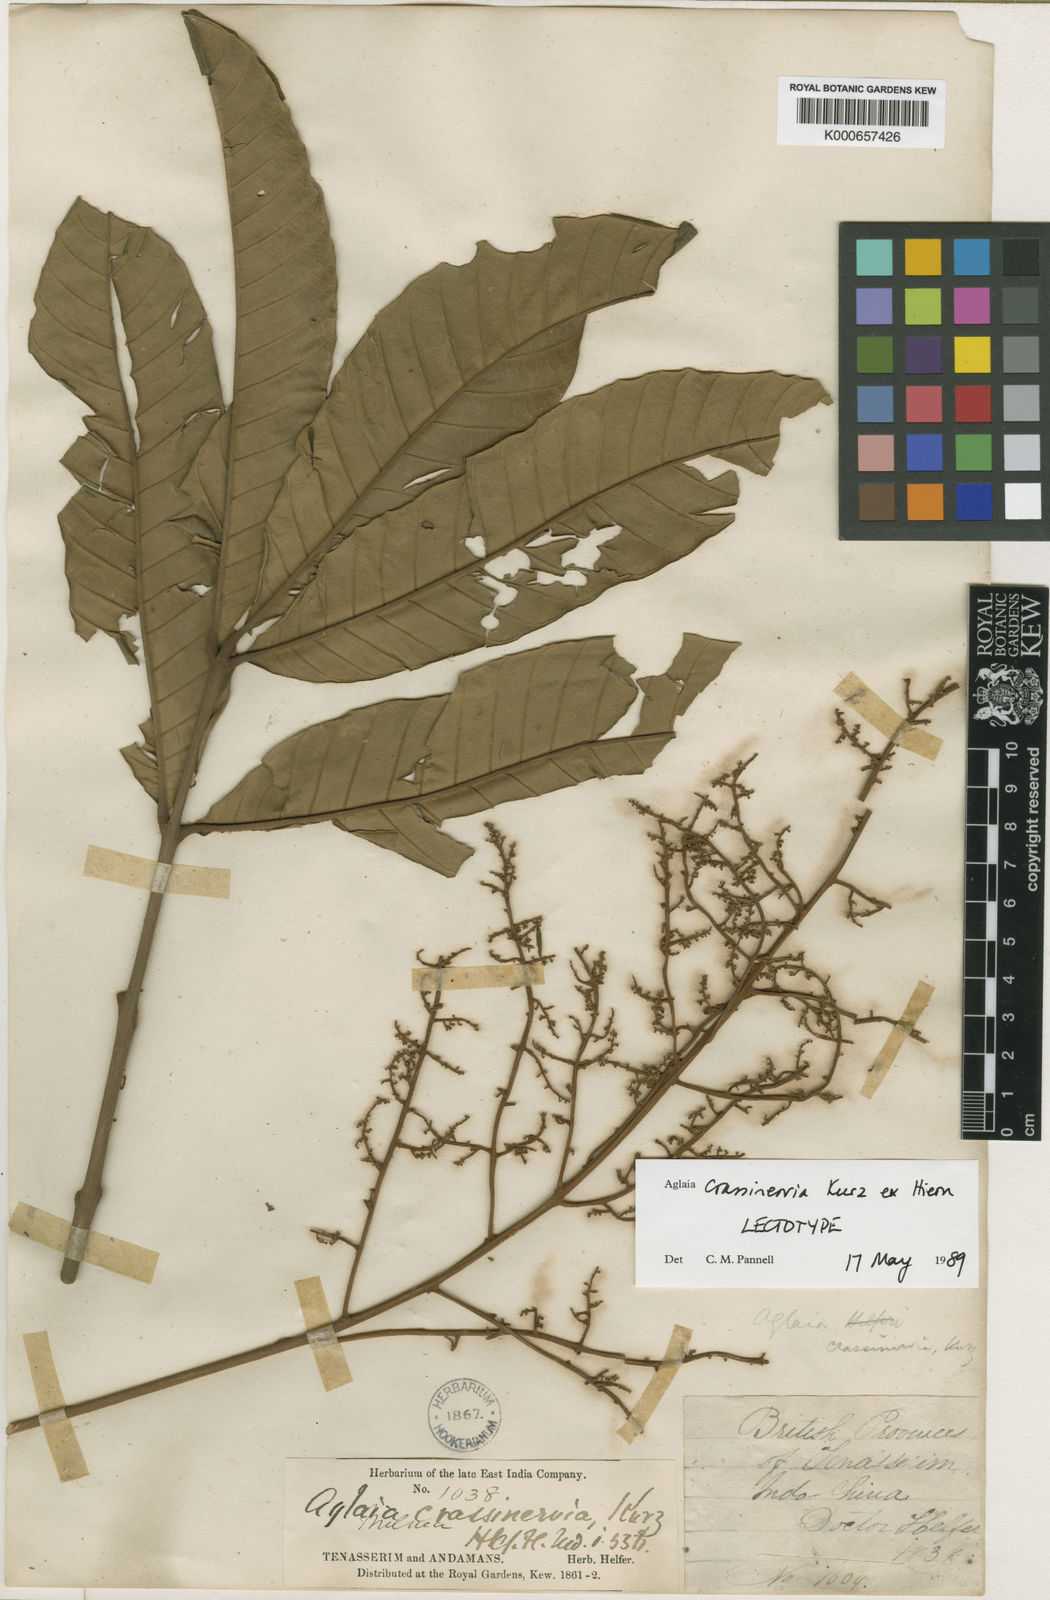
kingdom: Plantae
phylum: Tracheophyta
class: Magnoliopsida
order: Sapindales
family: Meliaceae
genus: Aglaia
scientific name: Aglaia crassinervia
